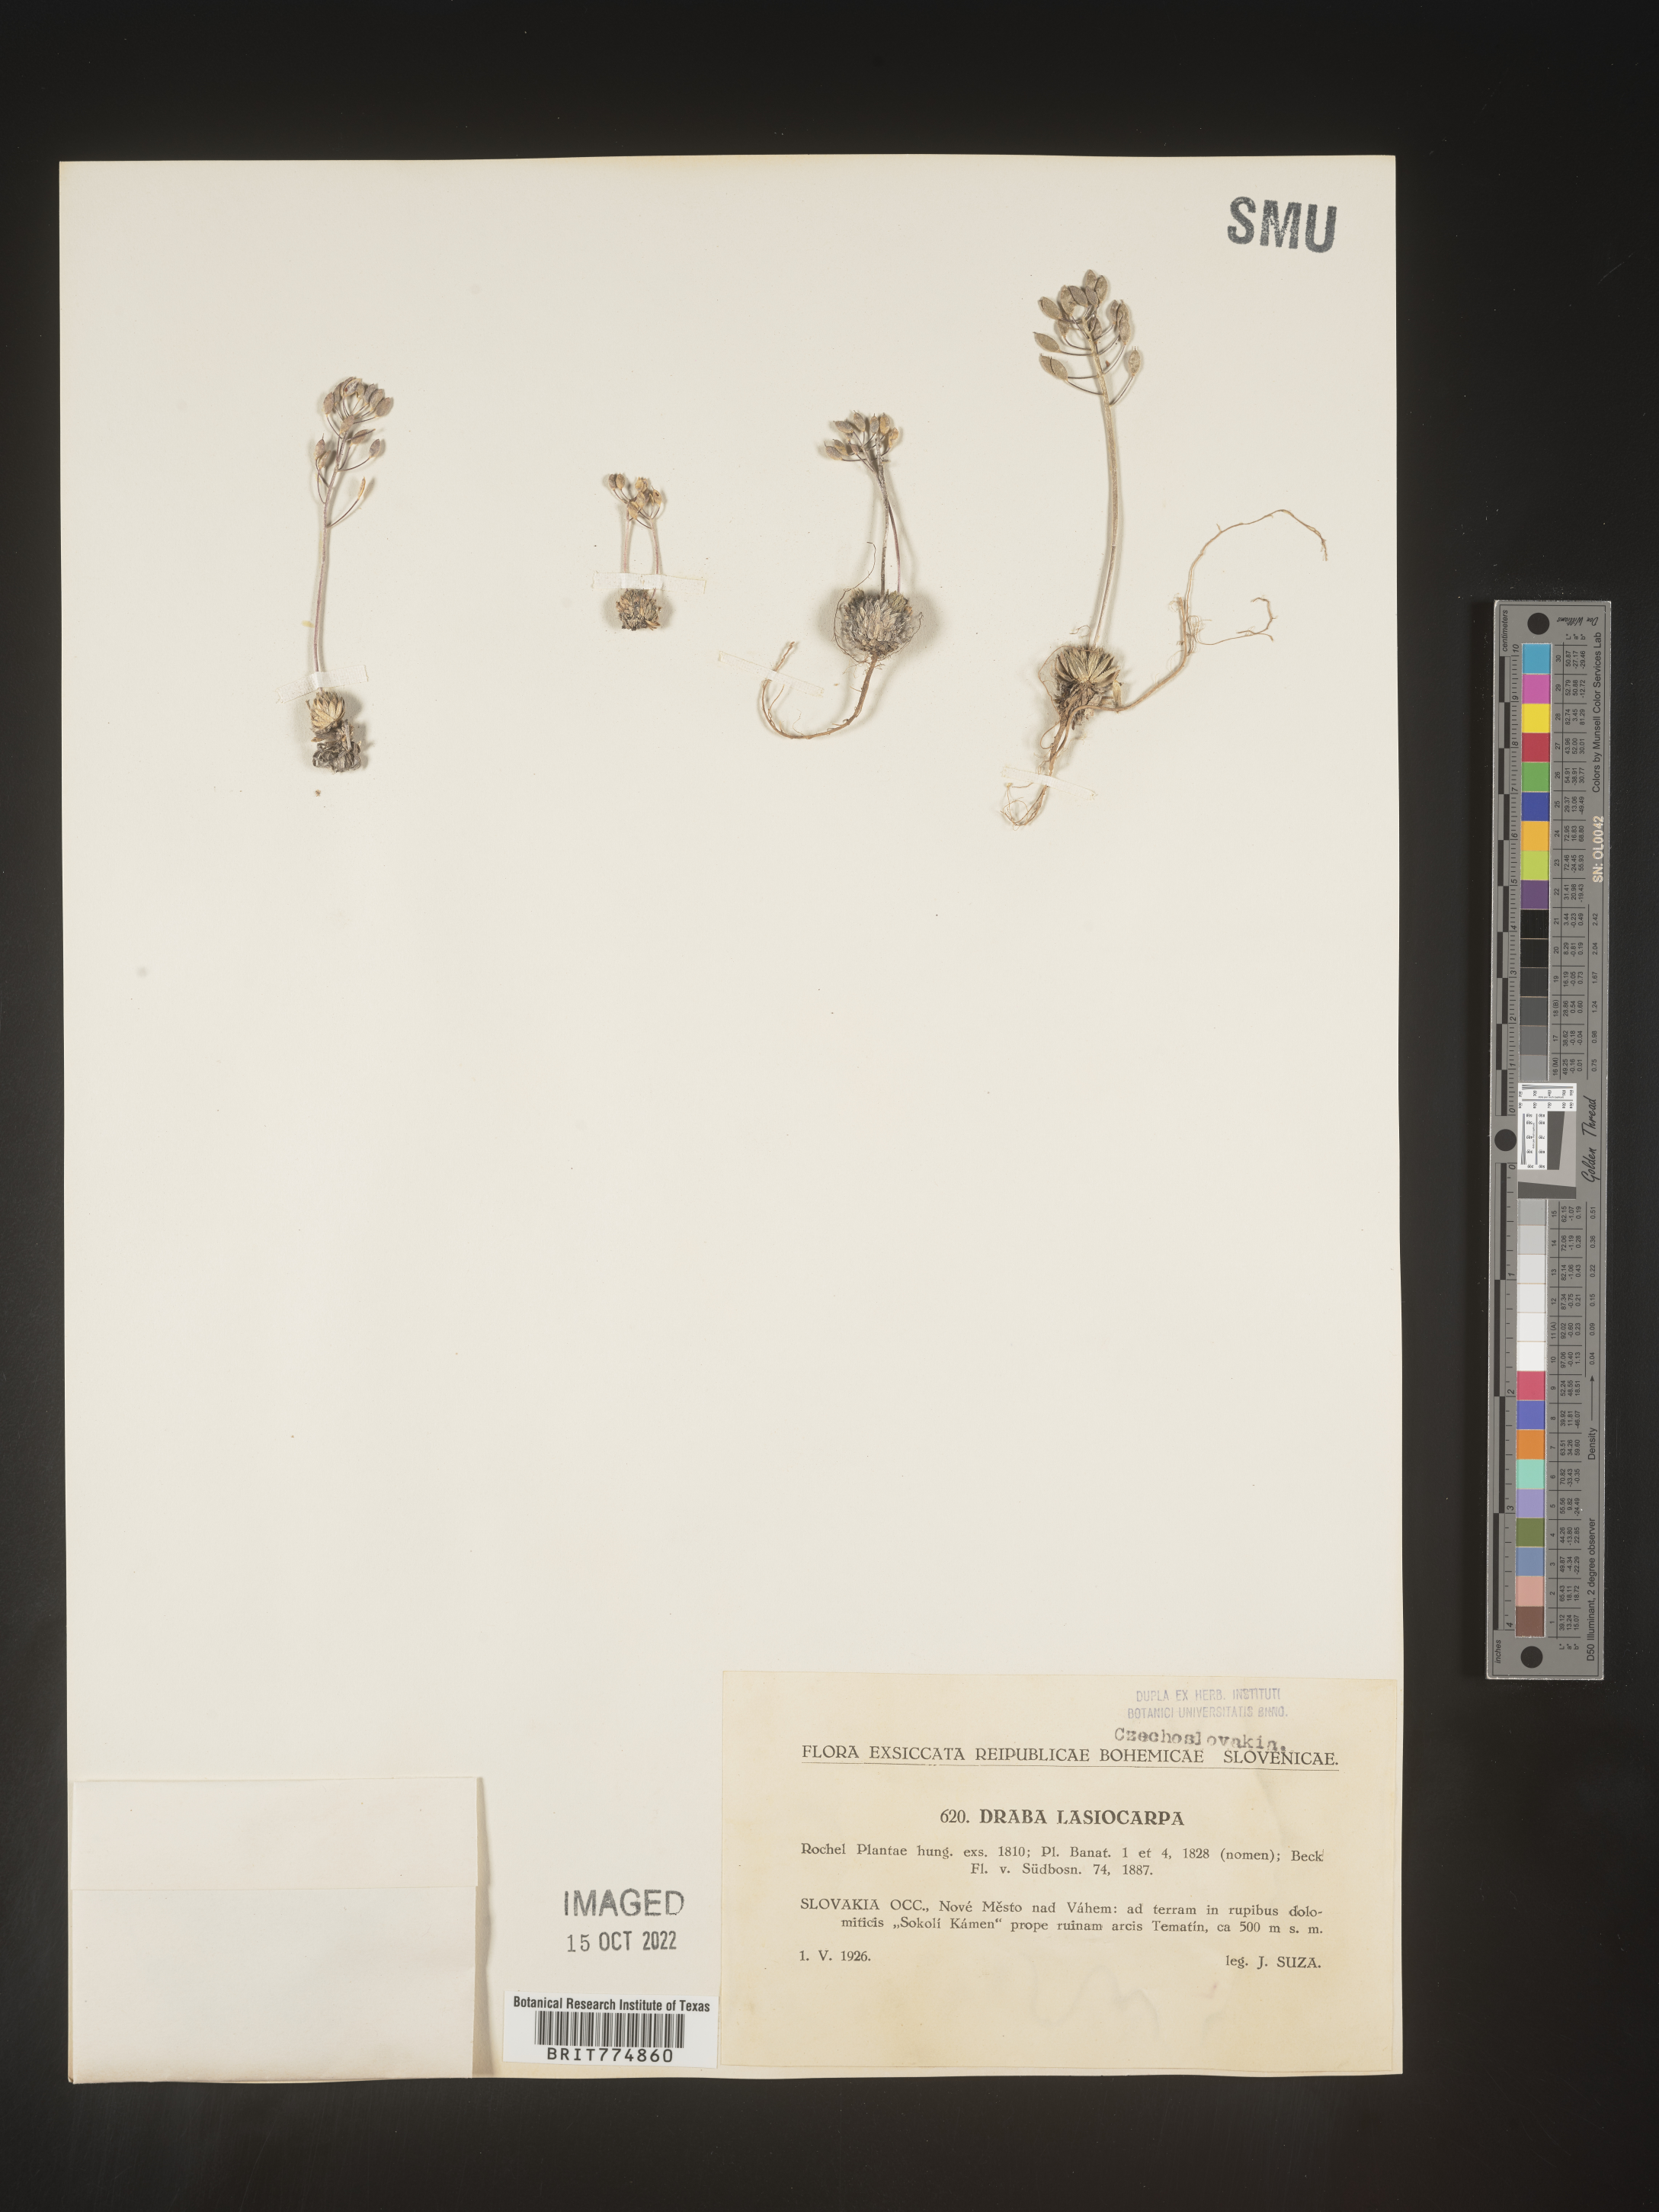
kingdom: Plantae
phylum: Tracheophyta
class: Magnoliopsida
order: Brassicales
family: Brassicaceae
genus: Draba
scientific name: Draba
